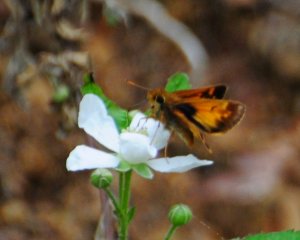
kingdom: Animalia
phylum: Arthropoda
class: Insecta
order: Lepidoptera
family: Hesperiidae
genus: Lon
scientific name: Lon hobomok
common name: Hobomok Skipper
